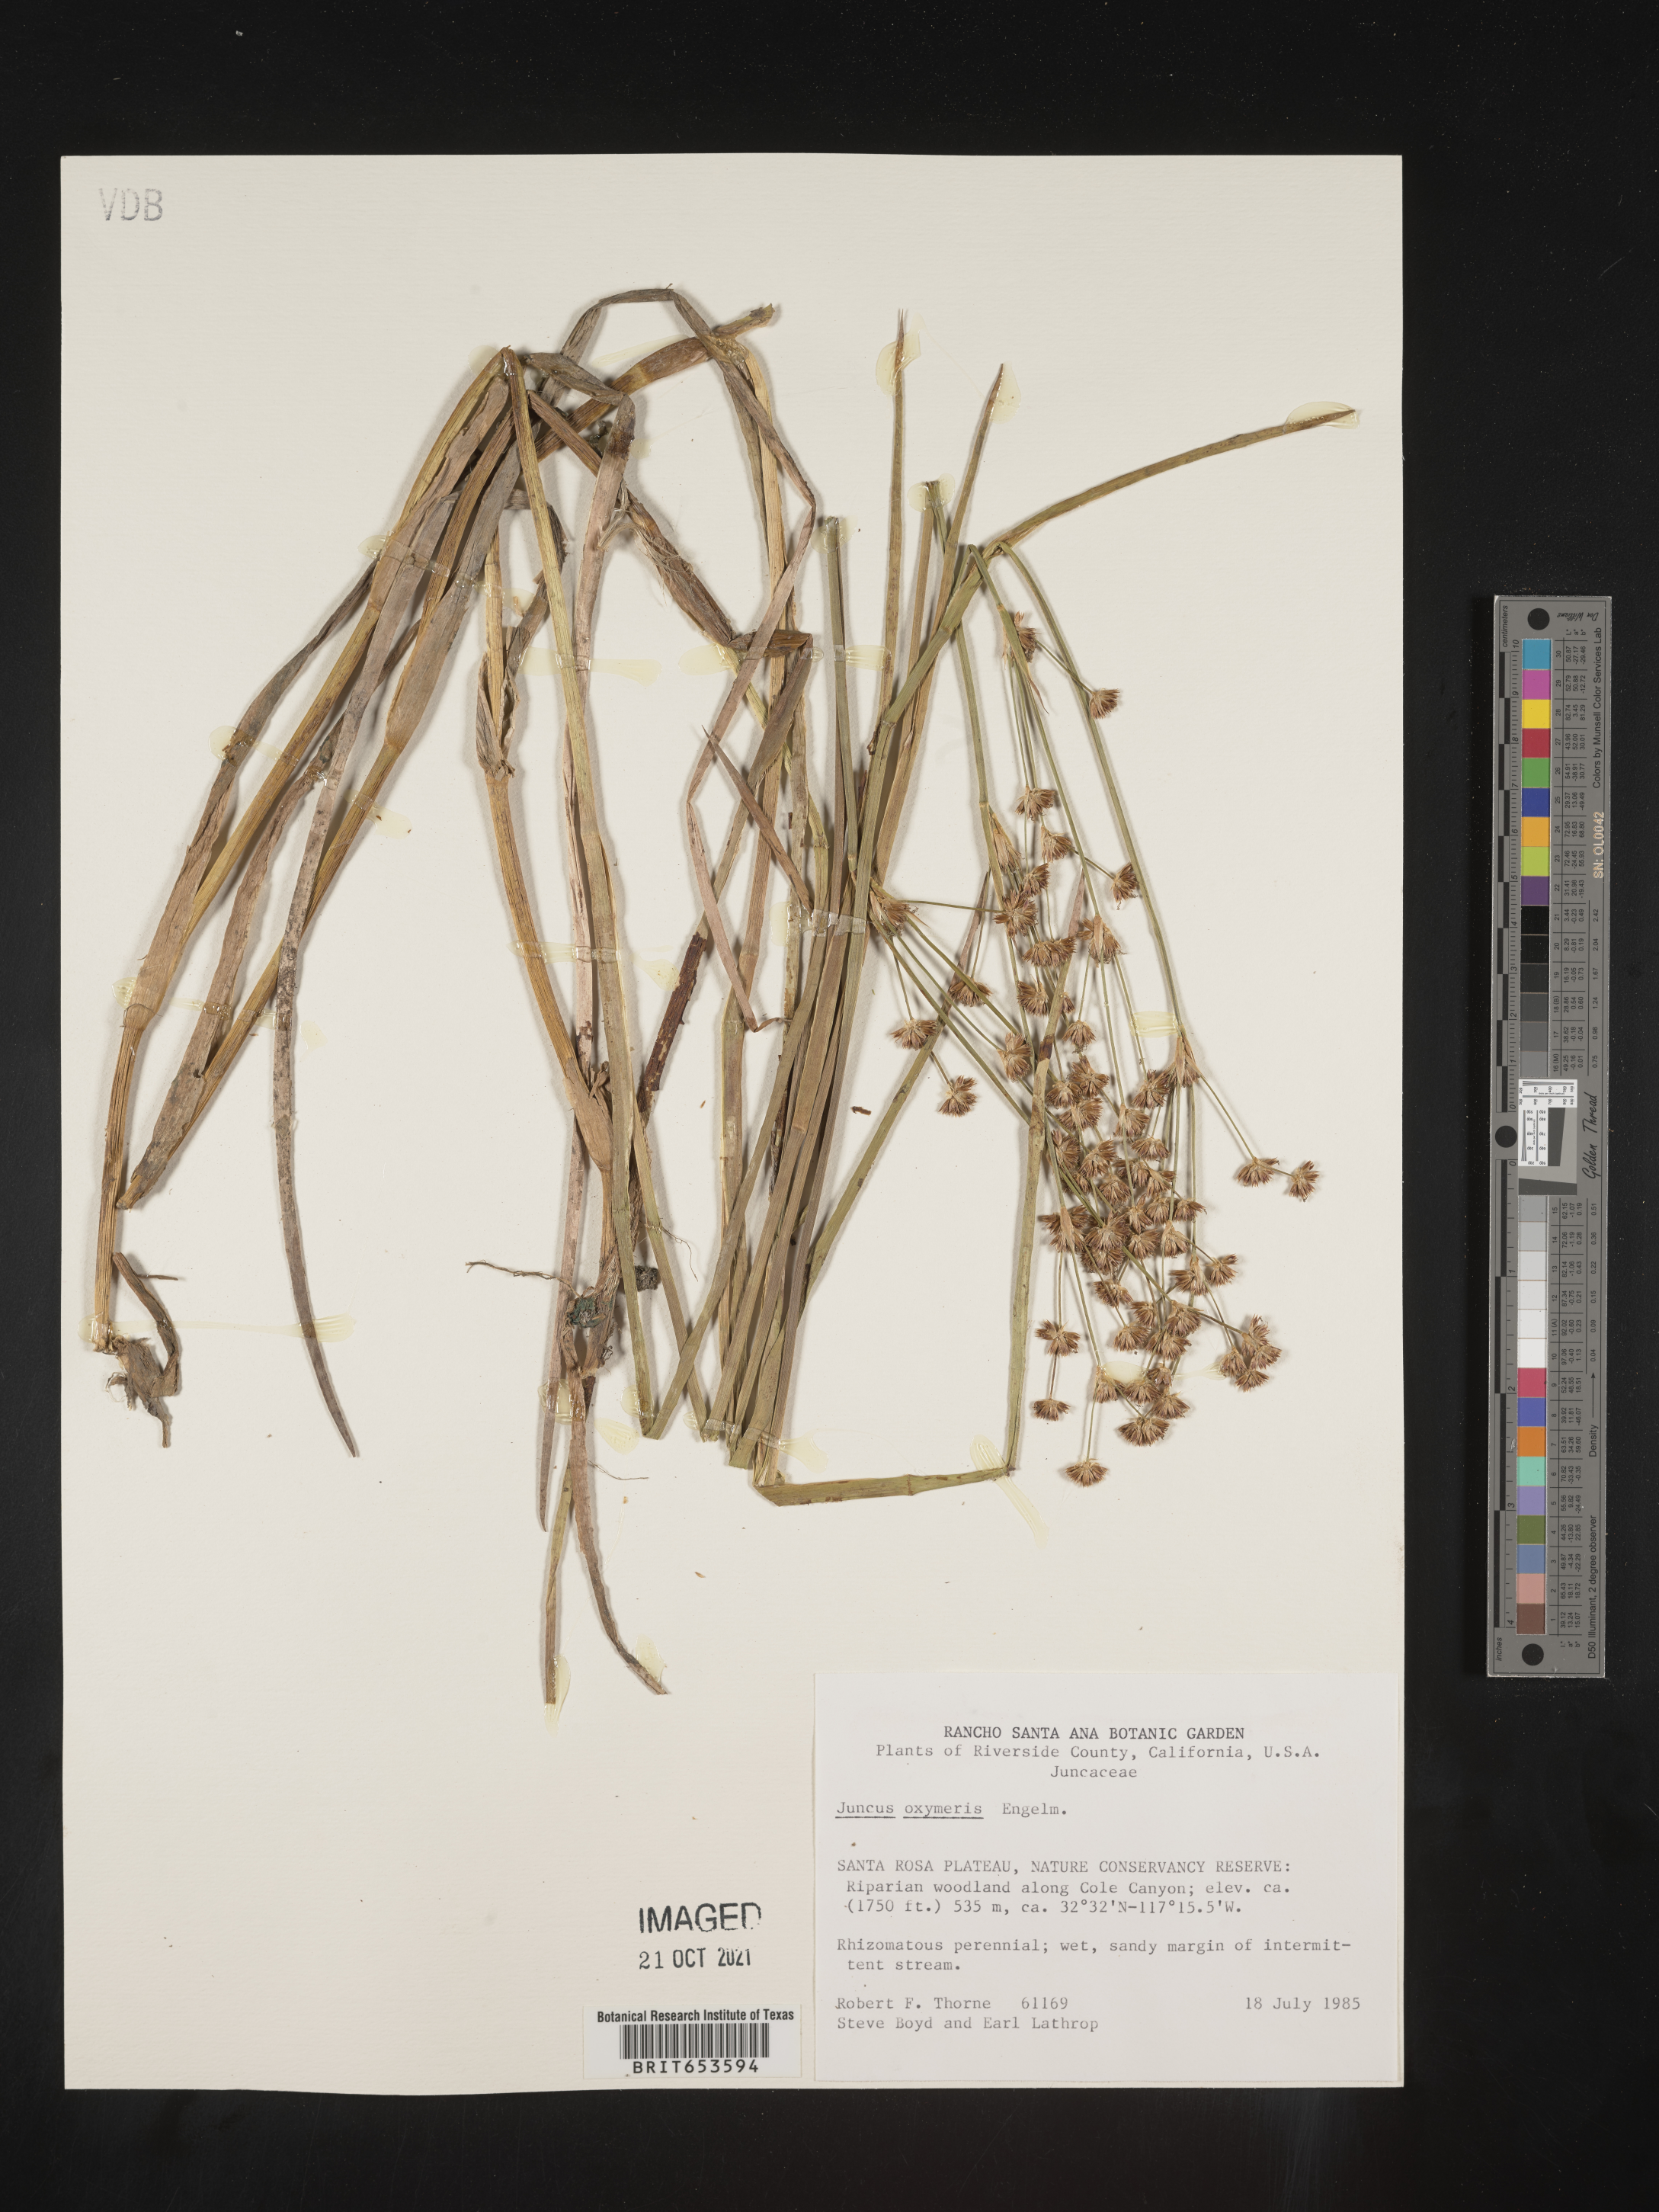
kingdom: Plantae
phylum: Tracheophyta
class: Liliopsida
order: Poales
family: Juncaceae
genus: Juncus
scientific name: Juncus oxymeris
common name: Pointed rush
